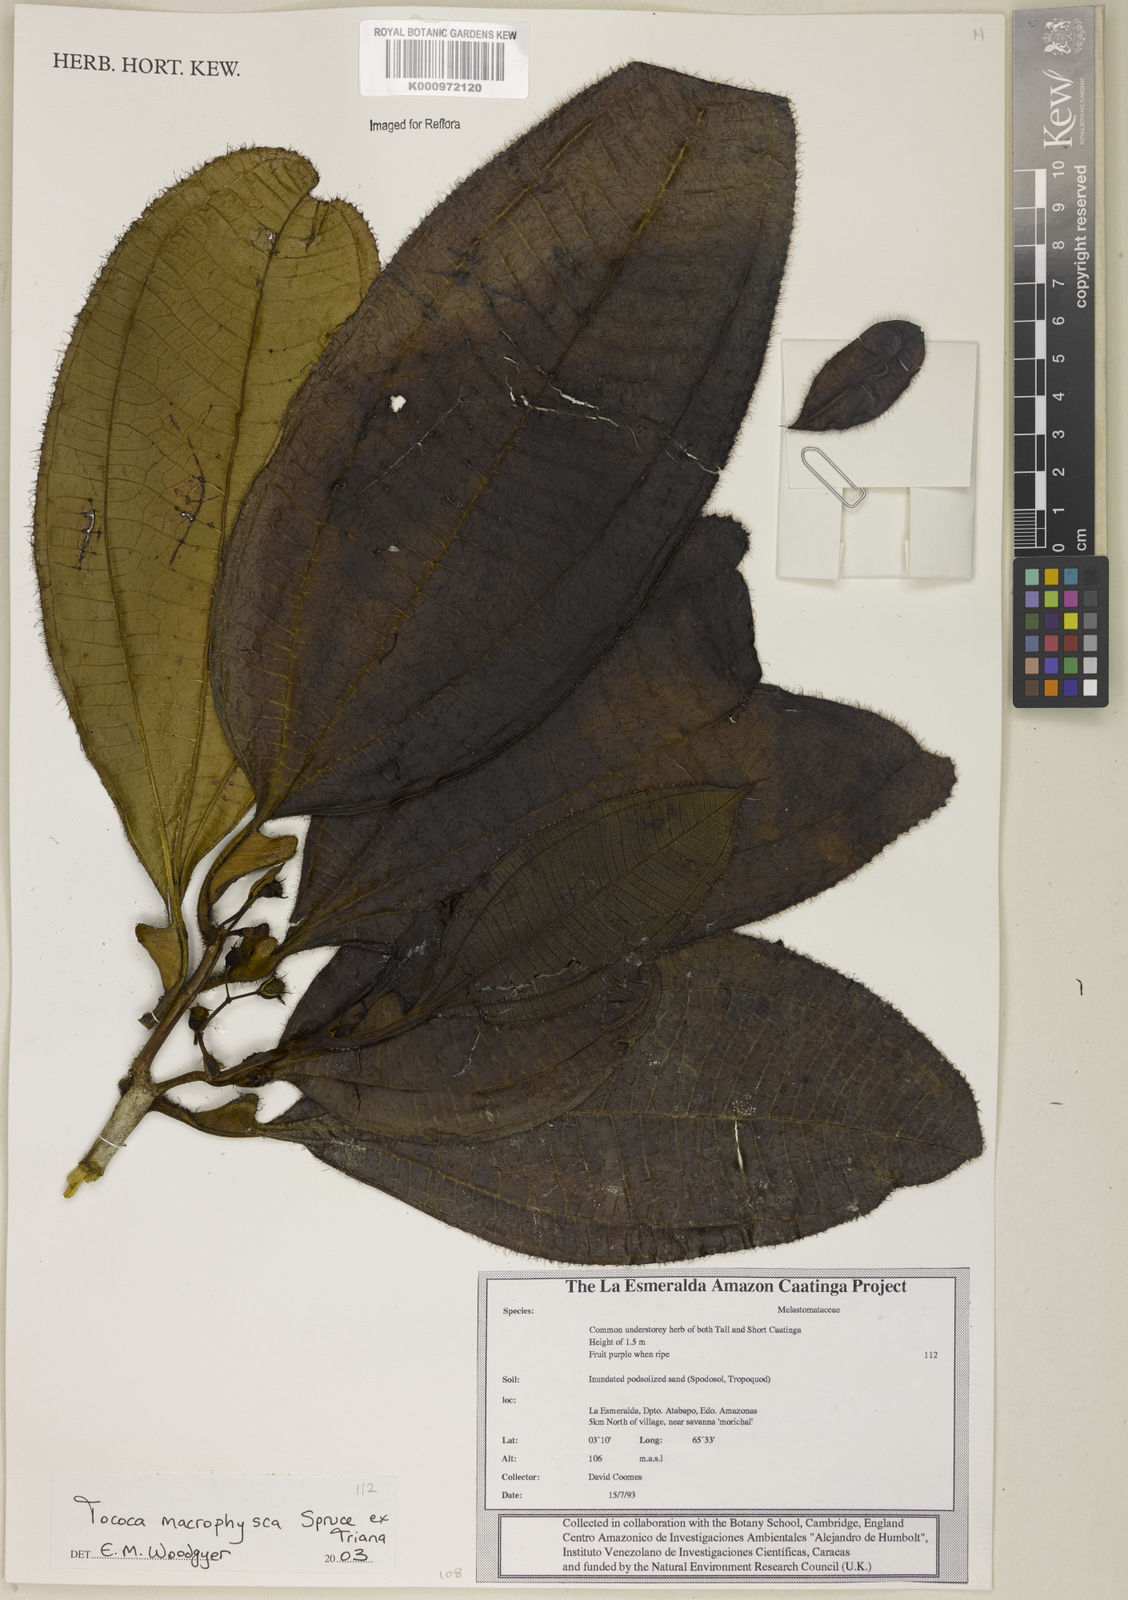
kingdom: Plantae
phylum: Tracheophyta
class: Magnoliopsida
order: Myrtales
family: Melastomataceae
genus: Miconia
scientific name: Miconia macrophysca
